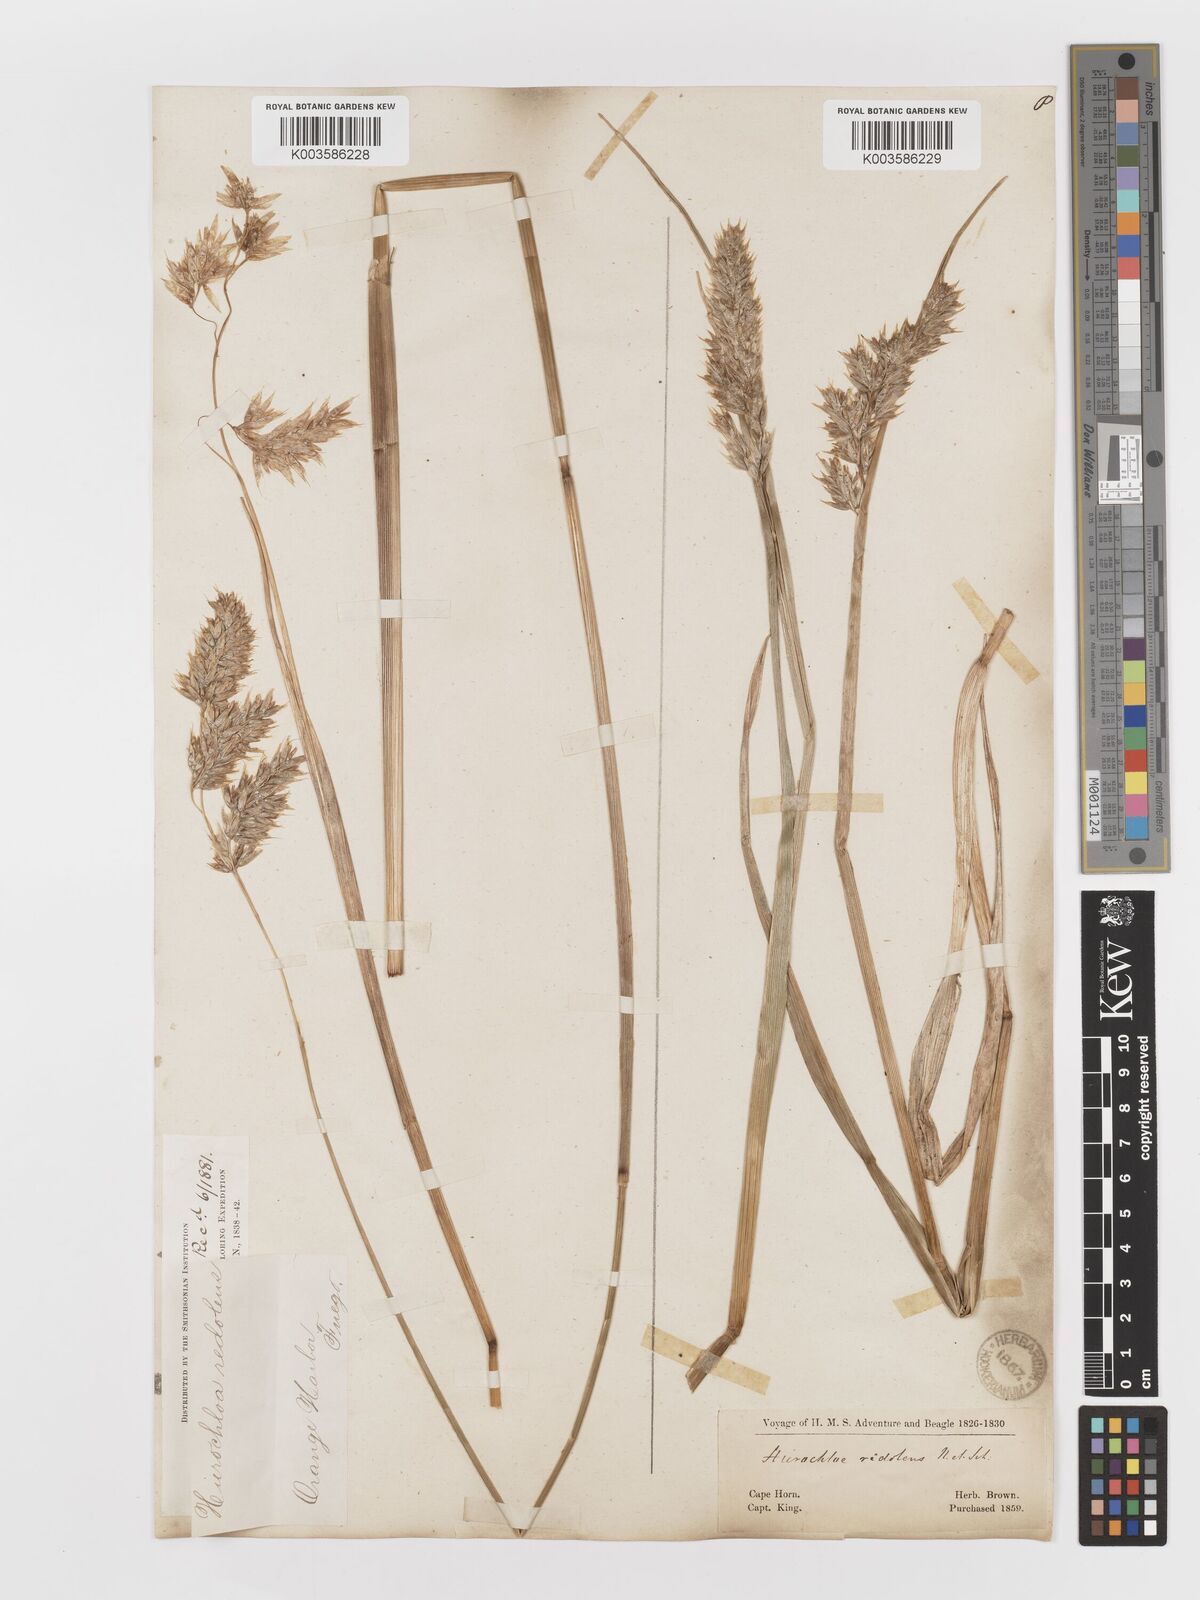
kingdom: Plantae
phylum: Tracheophyta
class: Liliopsida
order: Poales
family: Poaceae
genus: Anthoxanthum
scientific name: Anthoxanthum redolens
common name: Sweet holy grass
